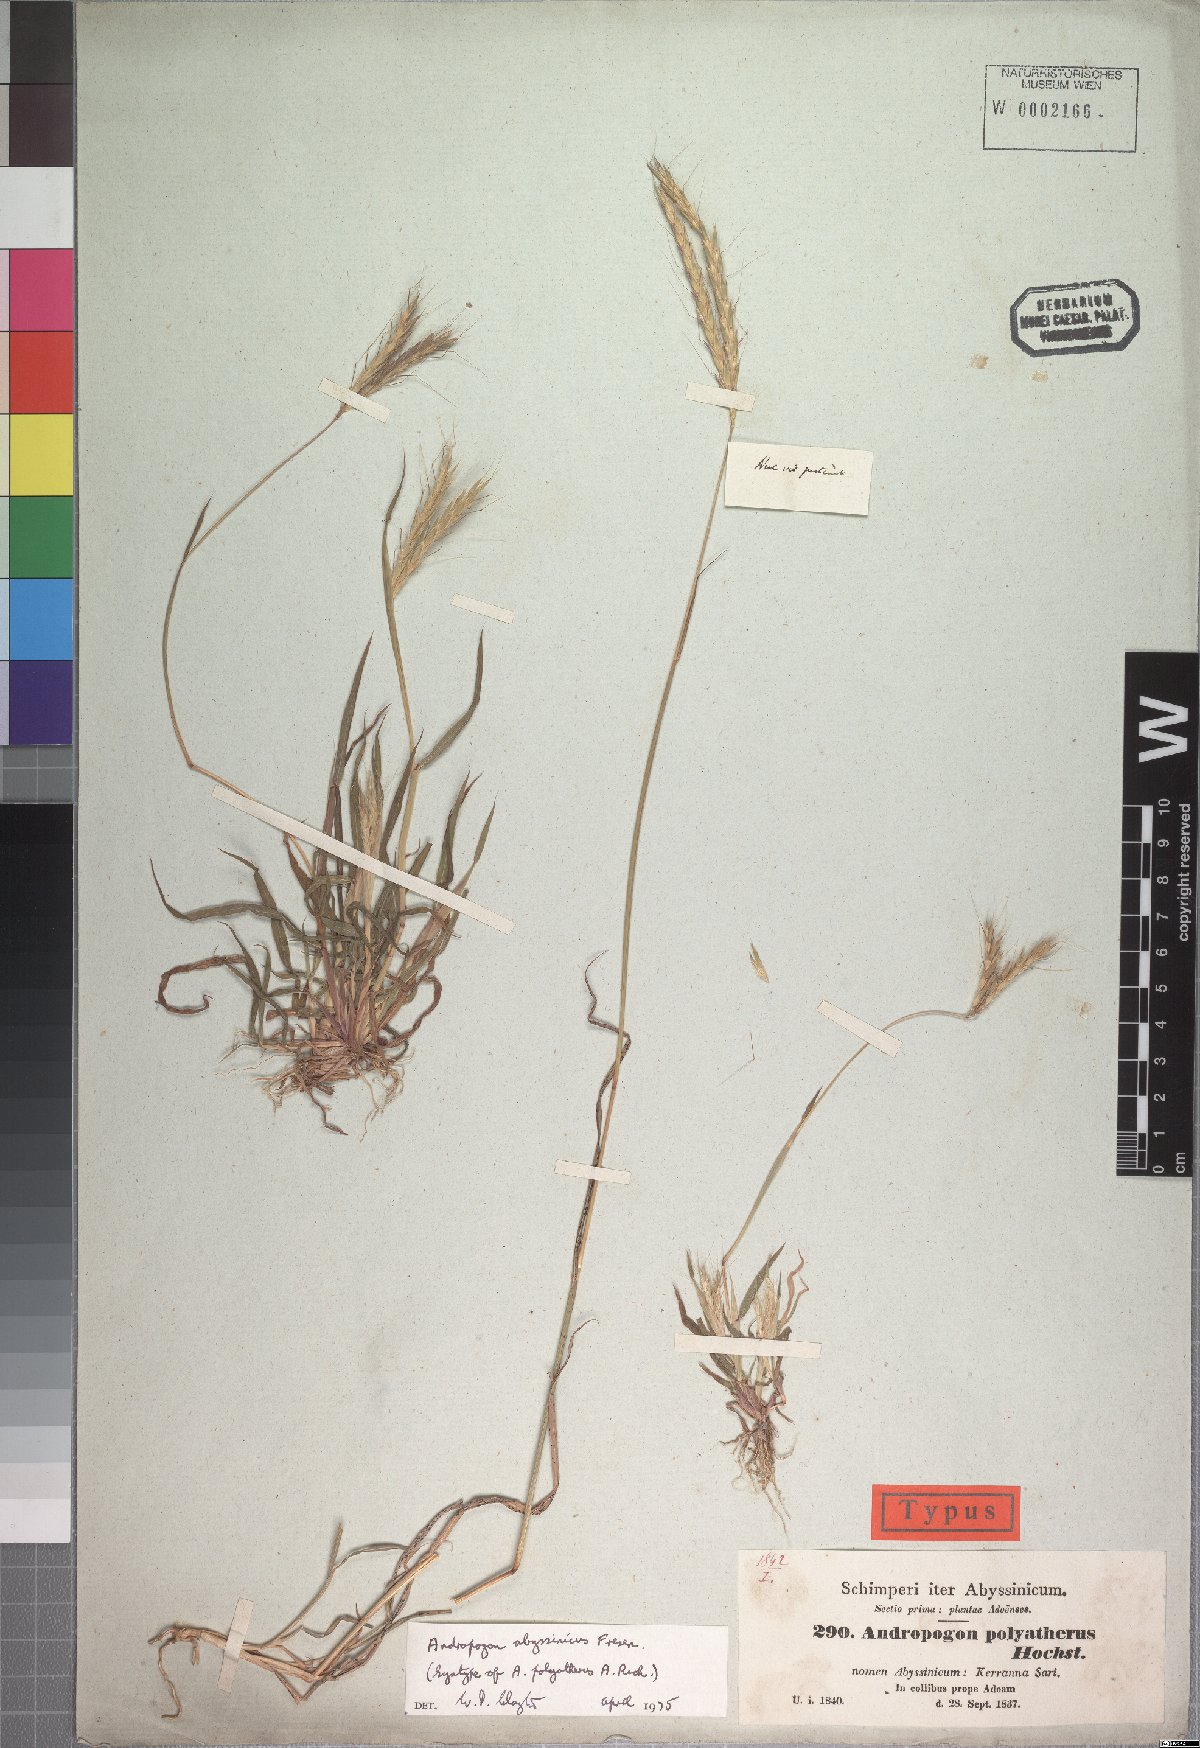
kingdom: Plantae
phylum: Tracheophyta
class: Liliopsida
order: Poales
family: Poaceae
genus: Andropogon
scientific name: Andropogon abyssinicus
